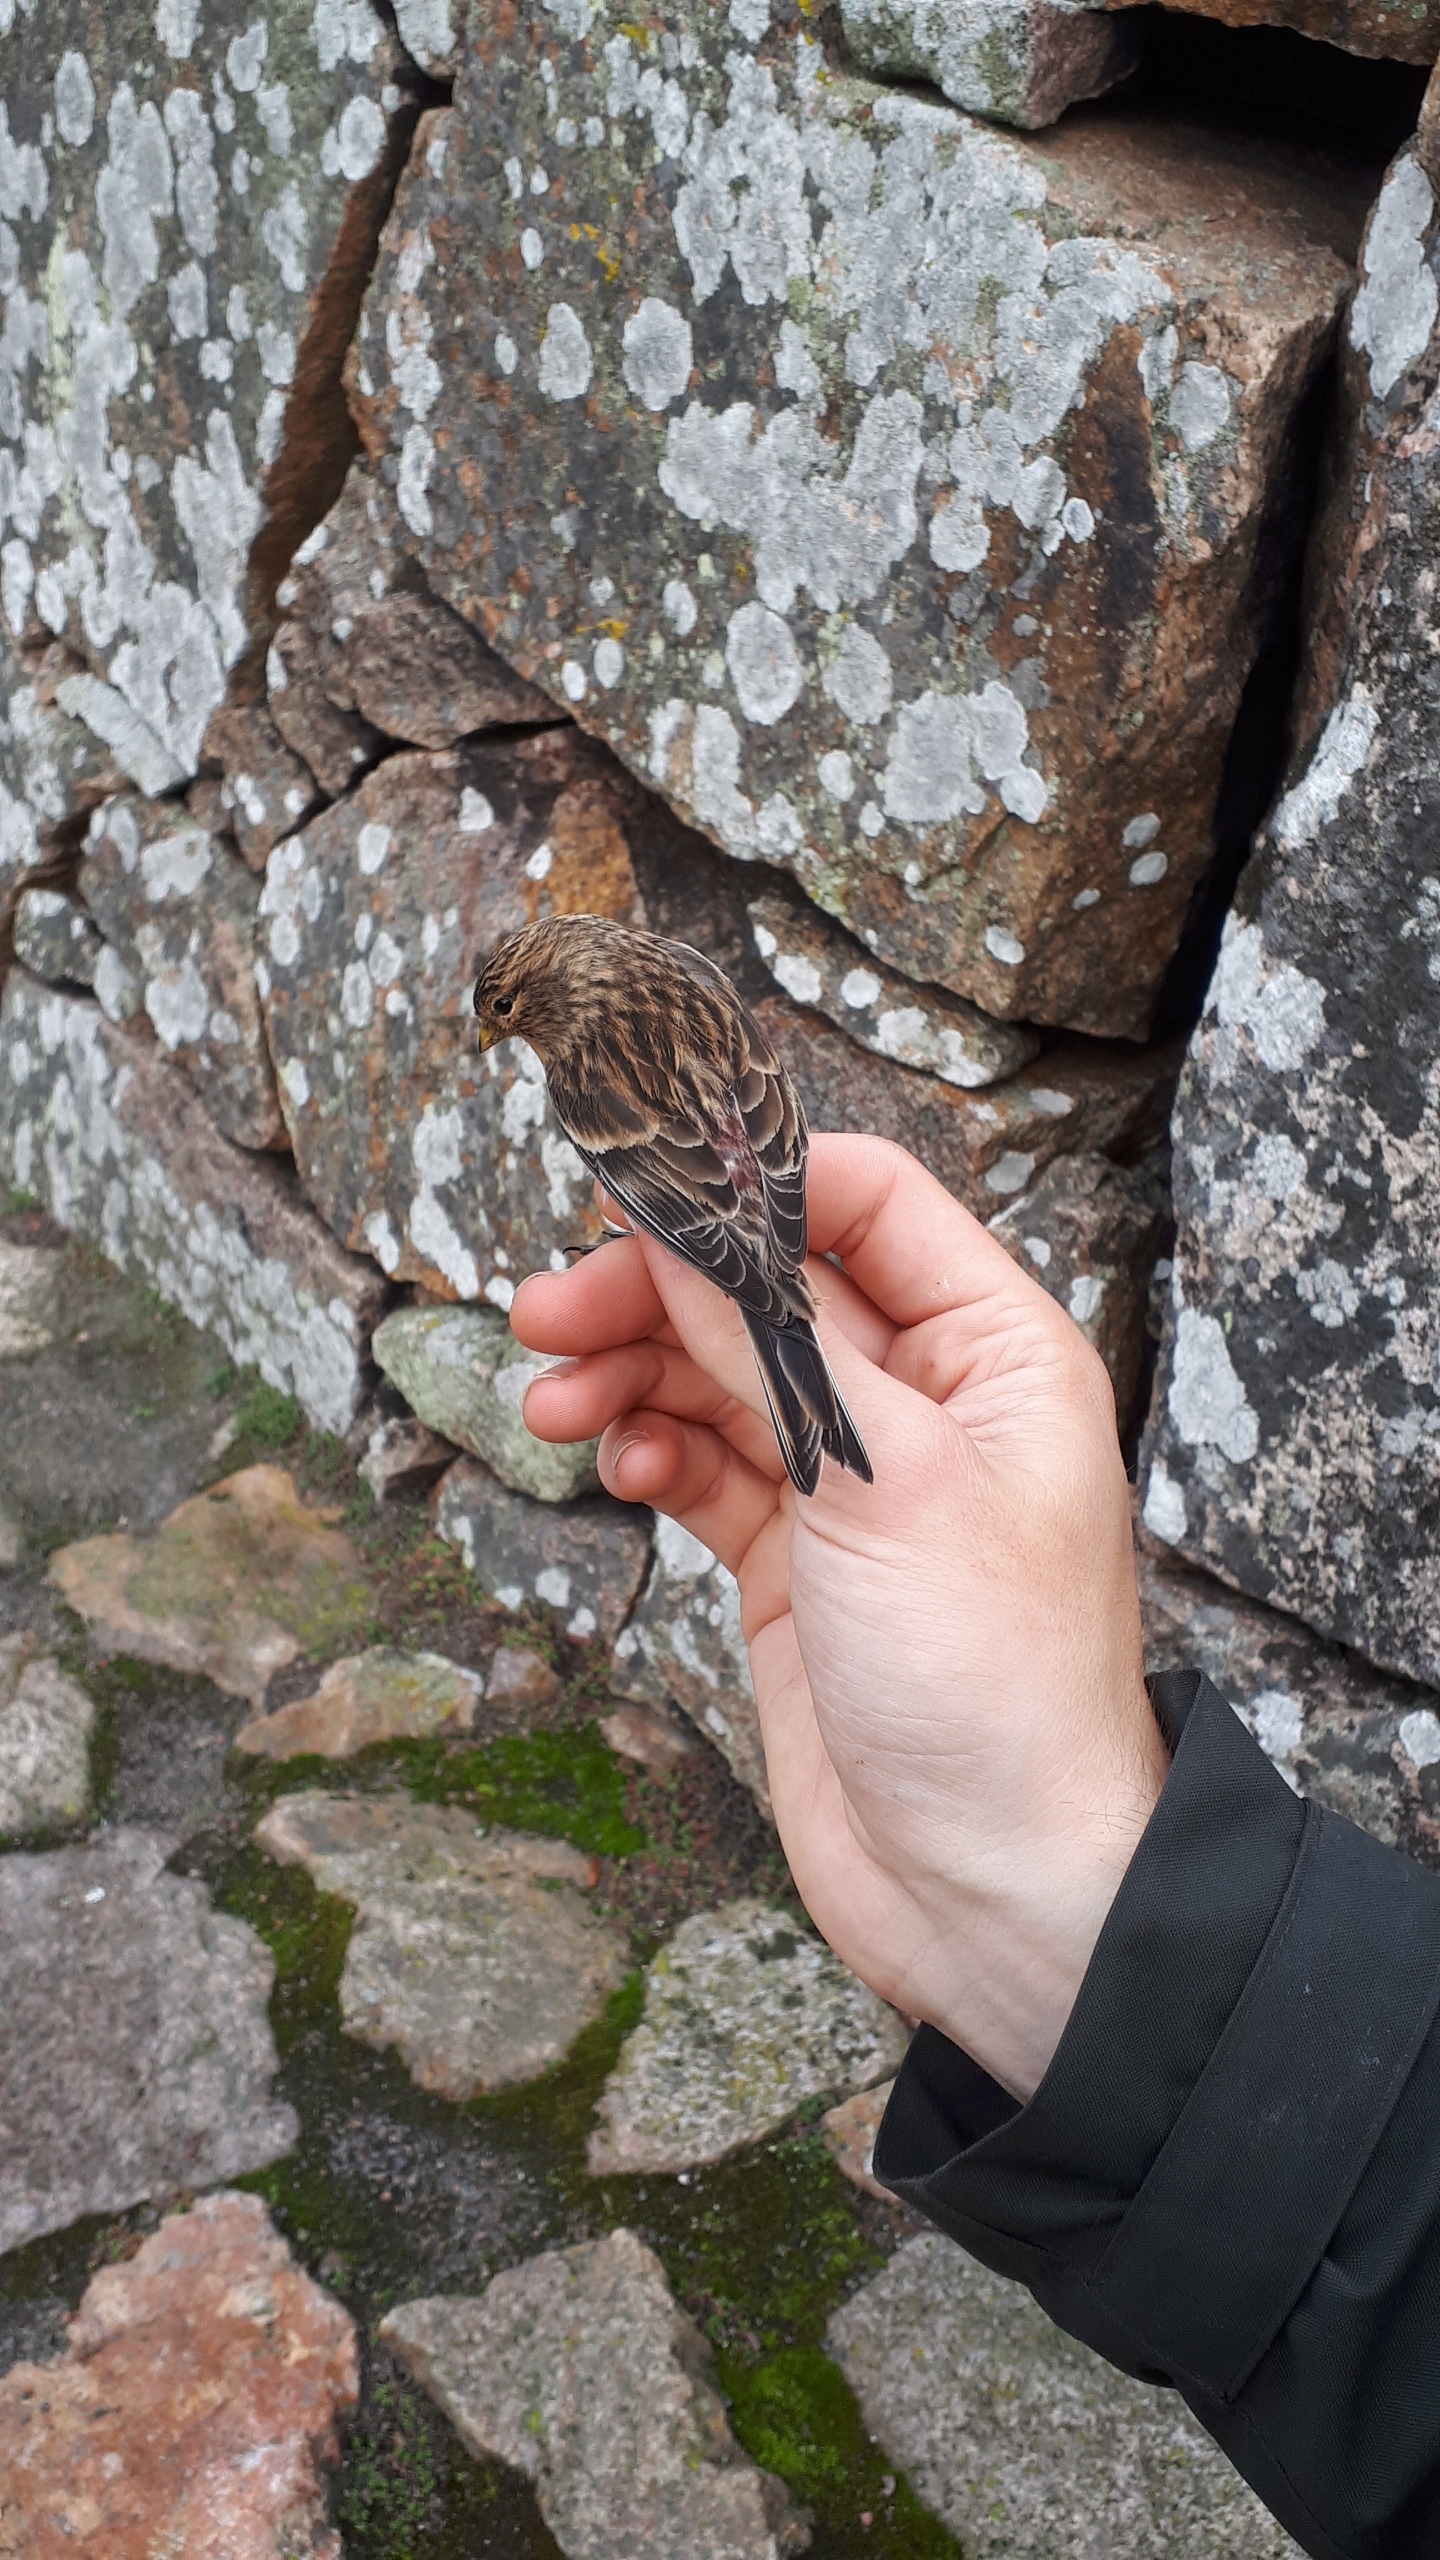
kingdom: Animalia
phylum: Chordata
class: Aves
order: Passeriformes
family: Fringillidae
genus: Linaria
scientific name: Linaria flavirostris
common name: Bjergirisk
